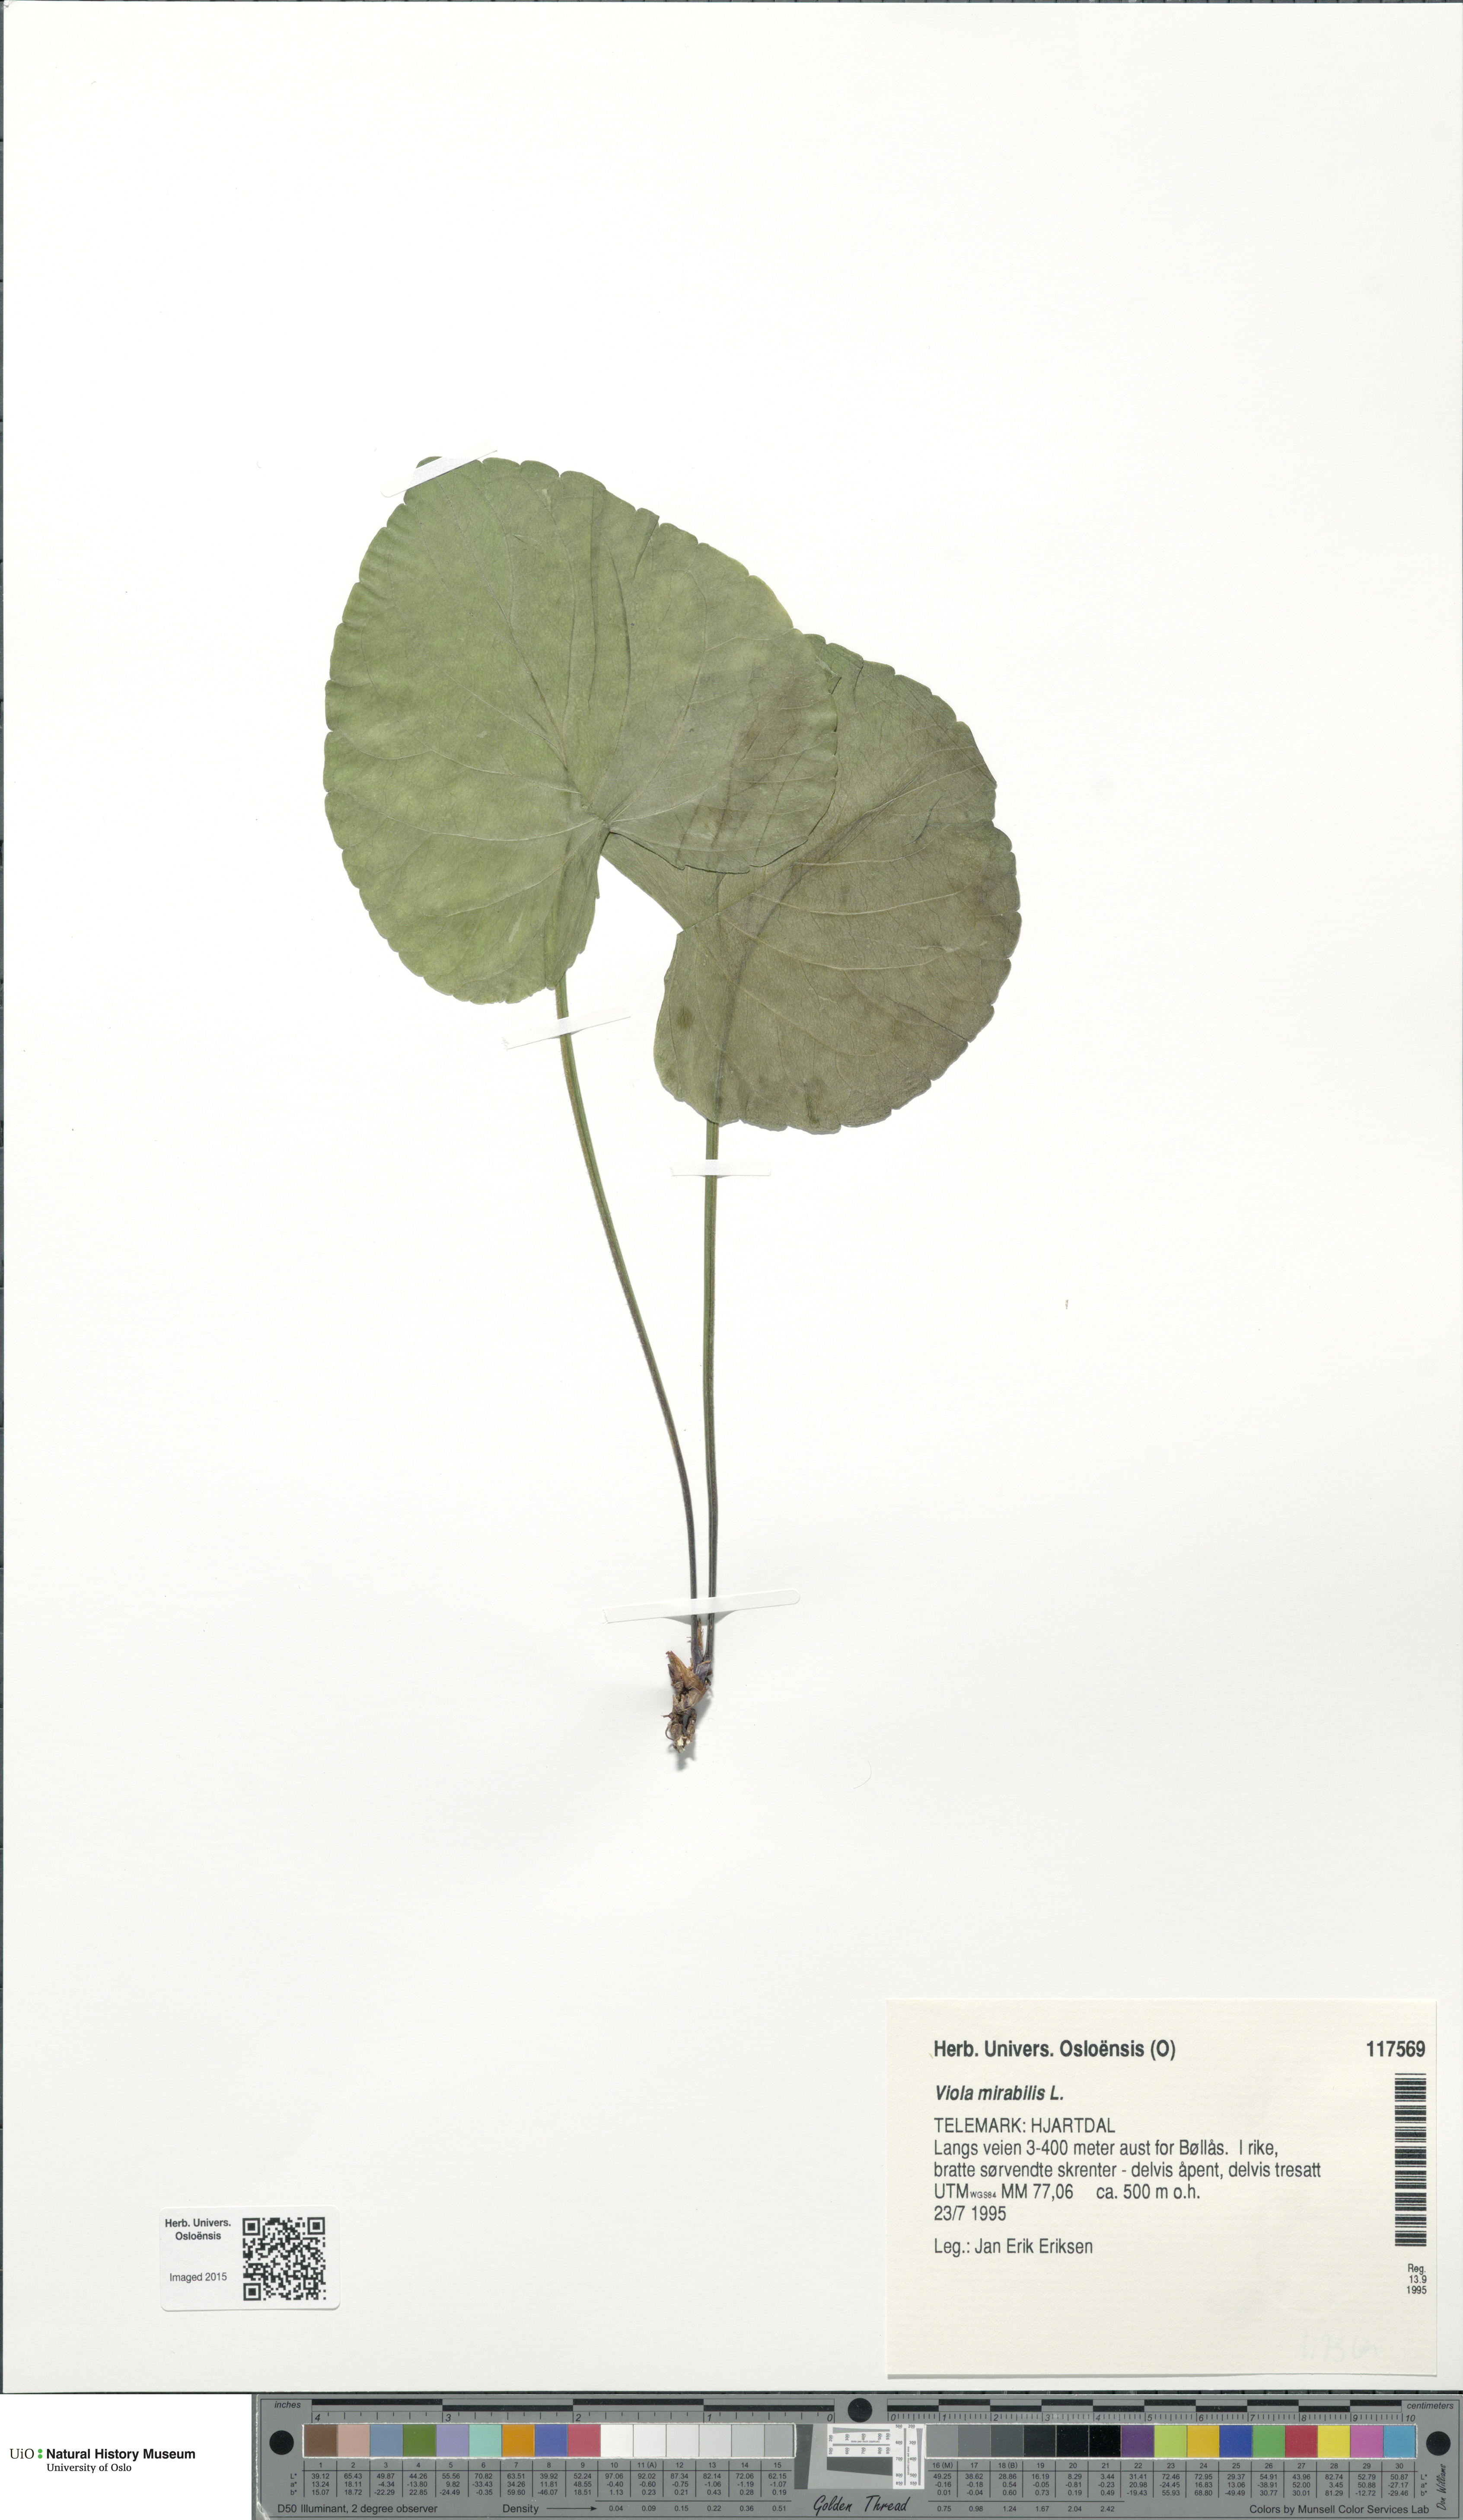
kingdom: Plantae
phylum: Tracheophyta
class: Magnoliopsida
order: Malpighiales
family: Violaceae
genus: Viola
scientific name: Viola mirabilis
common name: Wonder violet
